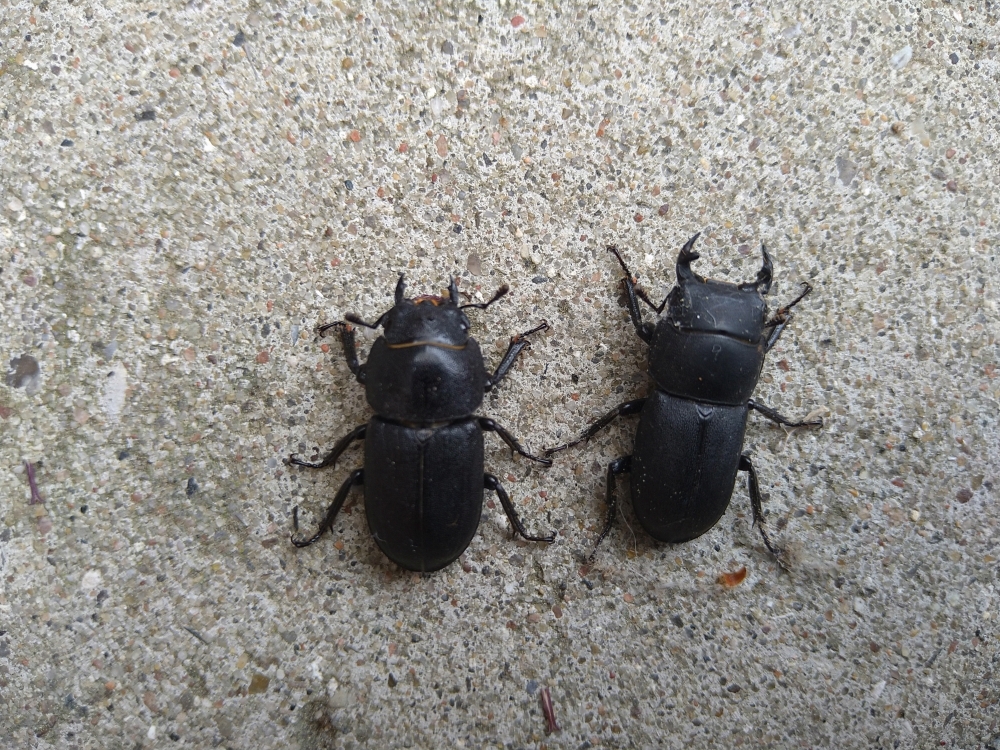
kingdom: Animalia
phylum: Arthropoda
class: Insecta
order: Coleoptera
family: Lucanidae
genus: Dorcus
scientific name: Dorcus parallelipipedus
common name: Bøghjort
